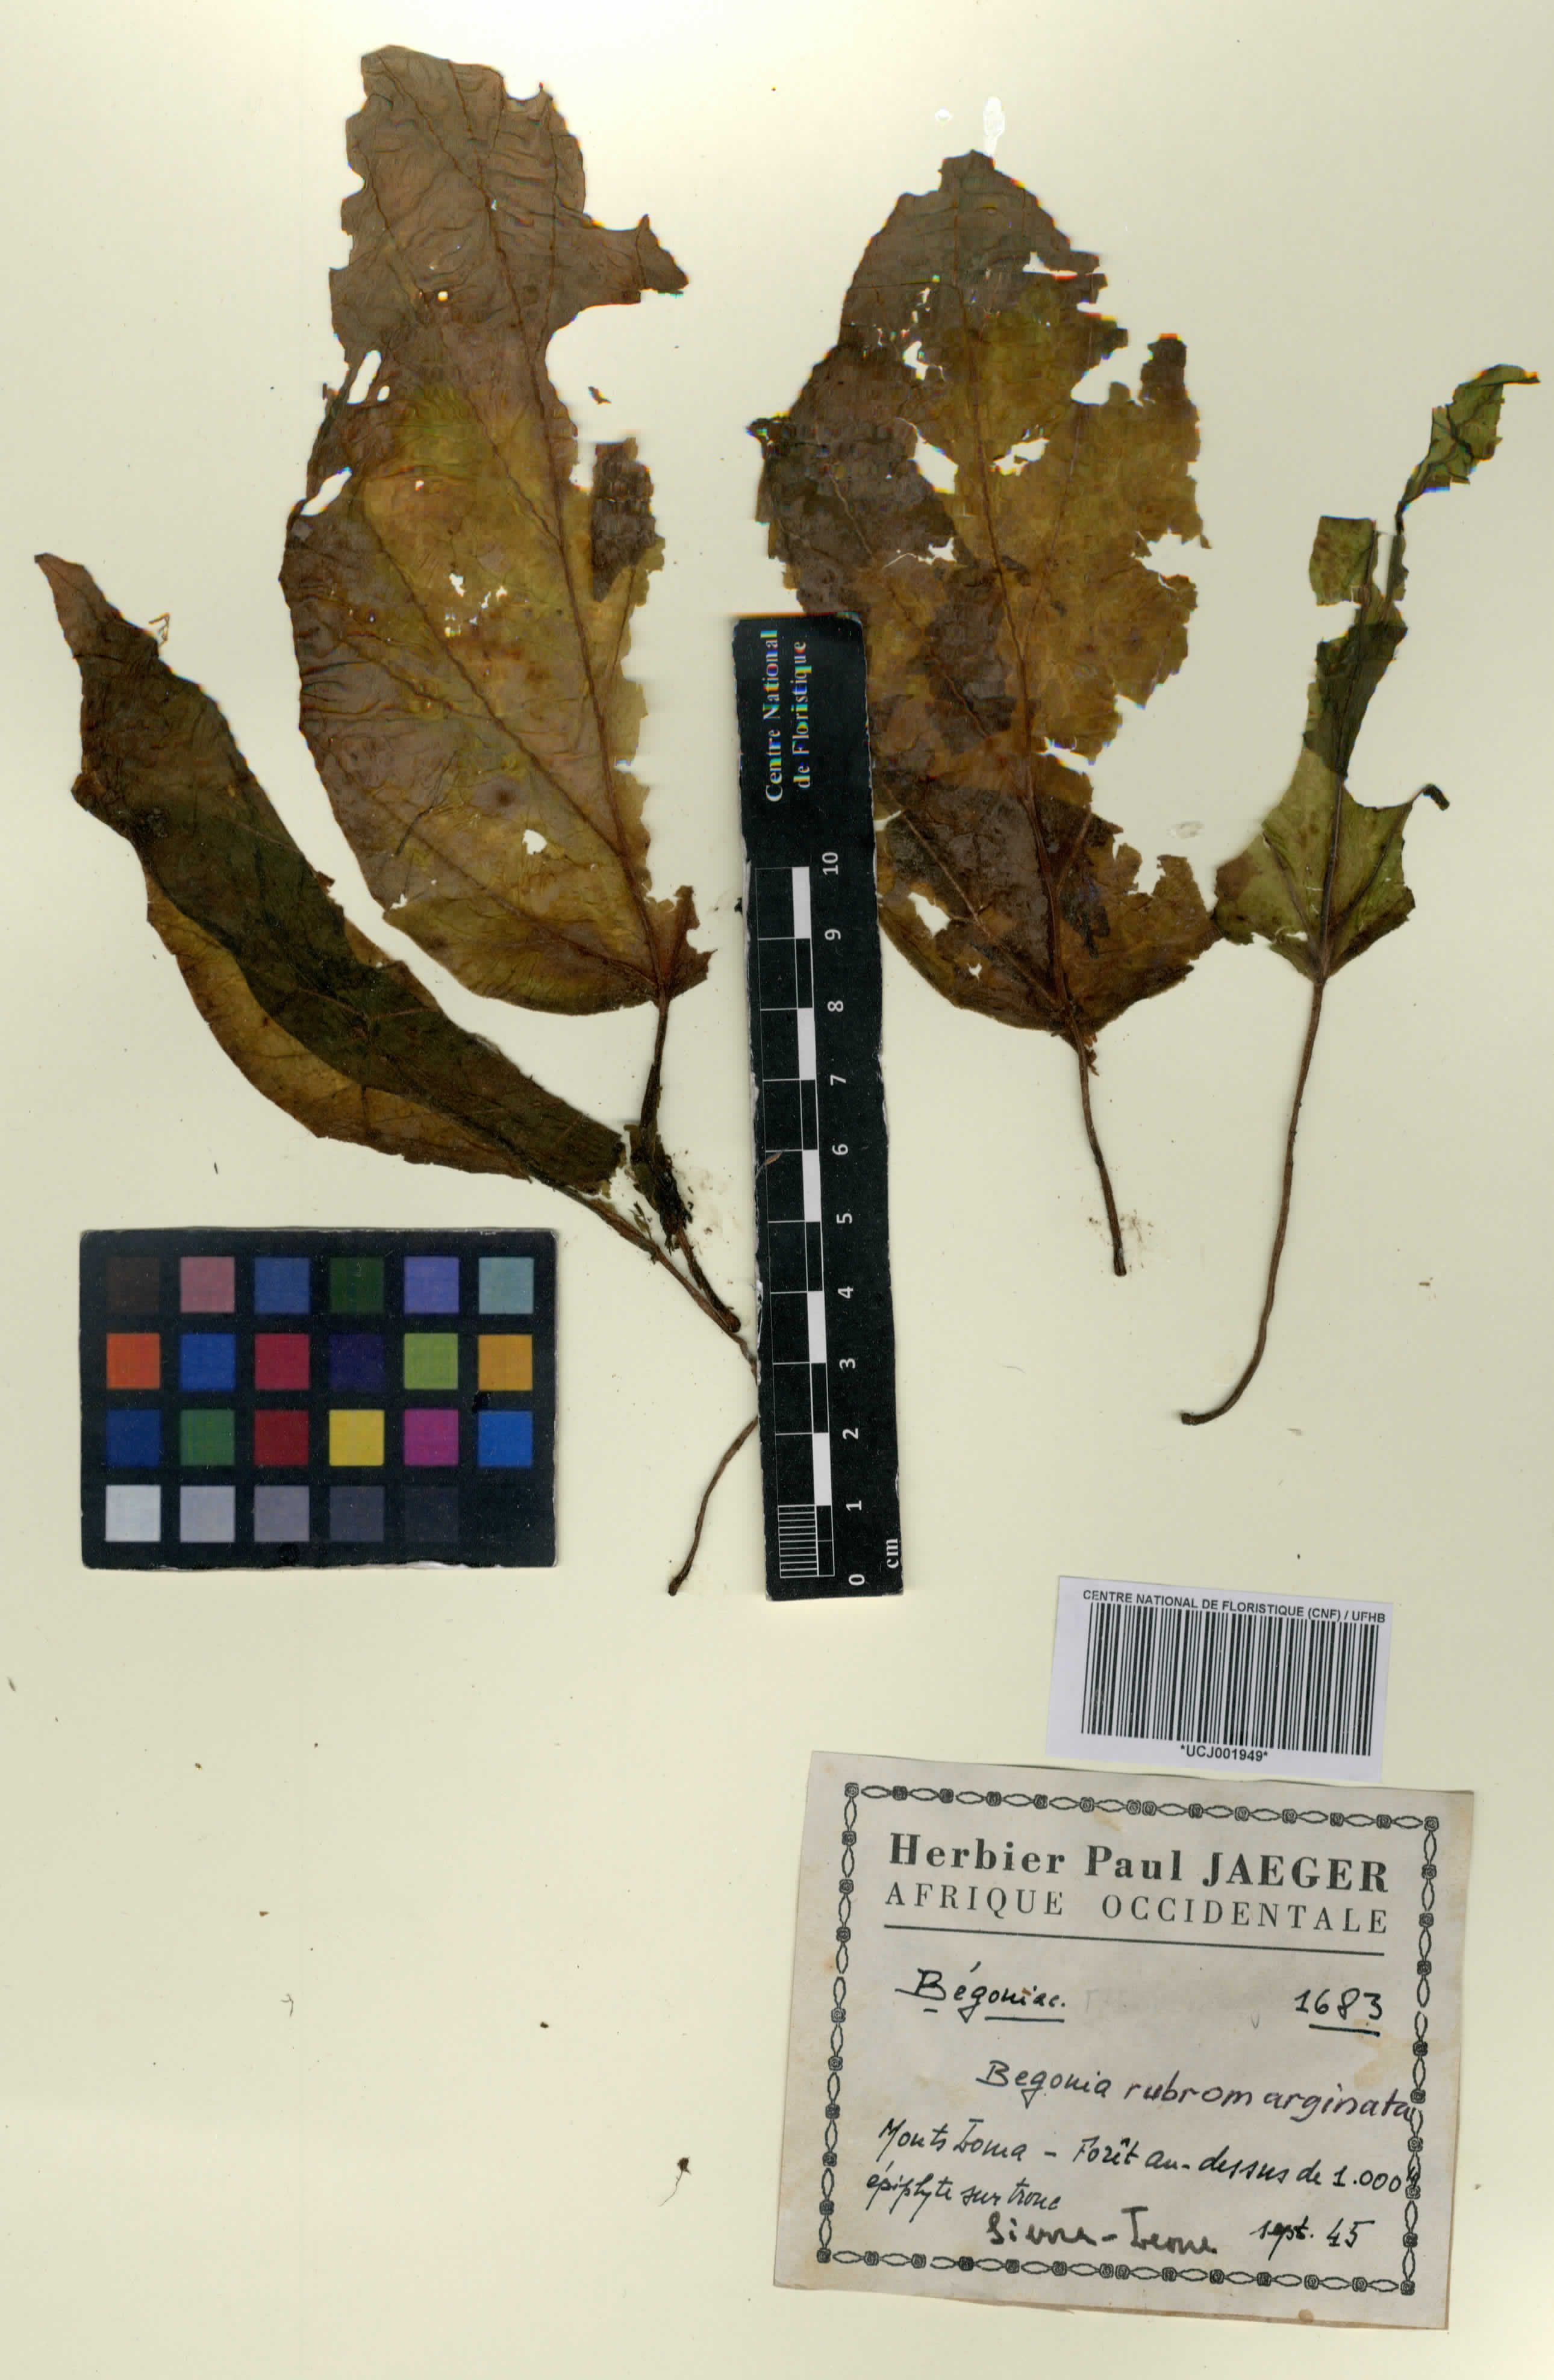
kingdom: Plantae
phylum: Tracheophyta
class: Magnoliopsida
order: Cucurbitales
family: Begoniaceae
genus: Begonia
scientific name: Begonia rubromarginata
